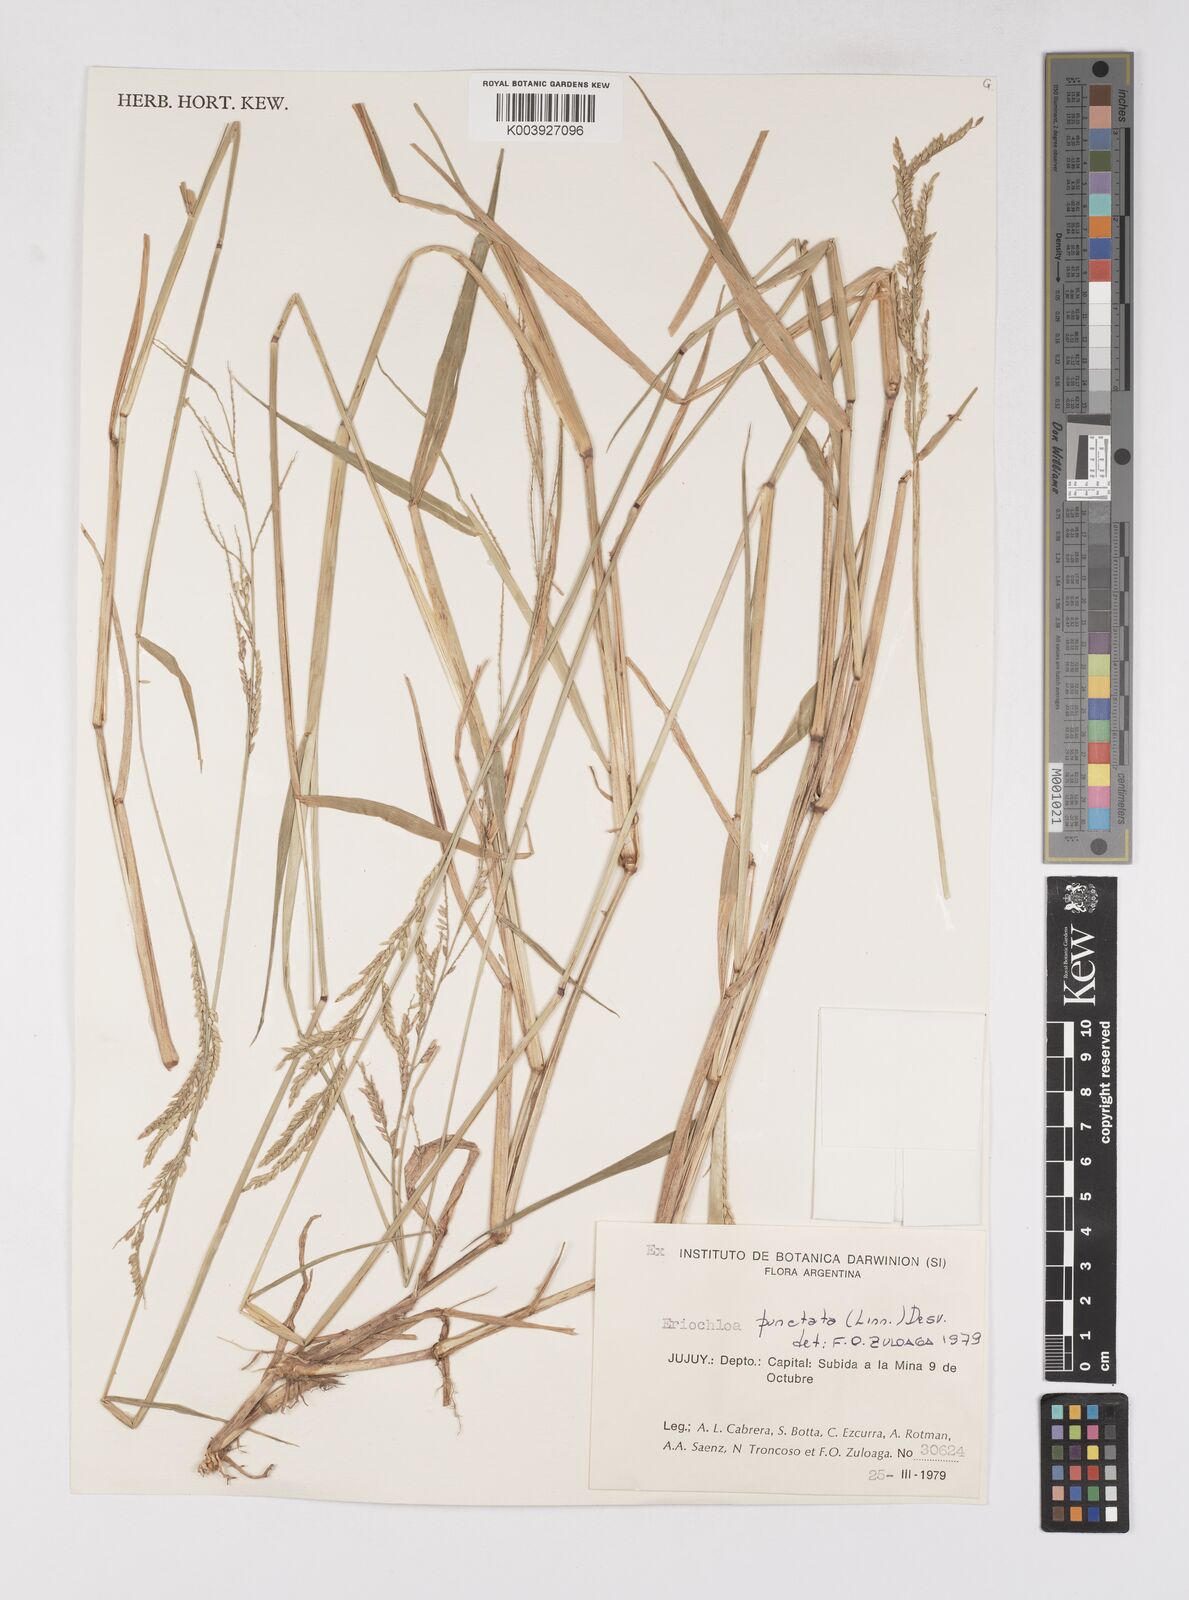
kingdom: Plantae
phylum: Tracheophyta
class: Liliopsida
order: Poales
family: Poaceae
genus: Eriochloa
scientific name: Eriochloa punctata
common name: Louisiana cupgrass
